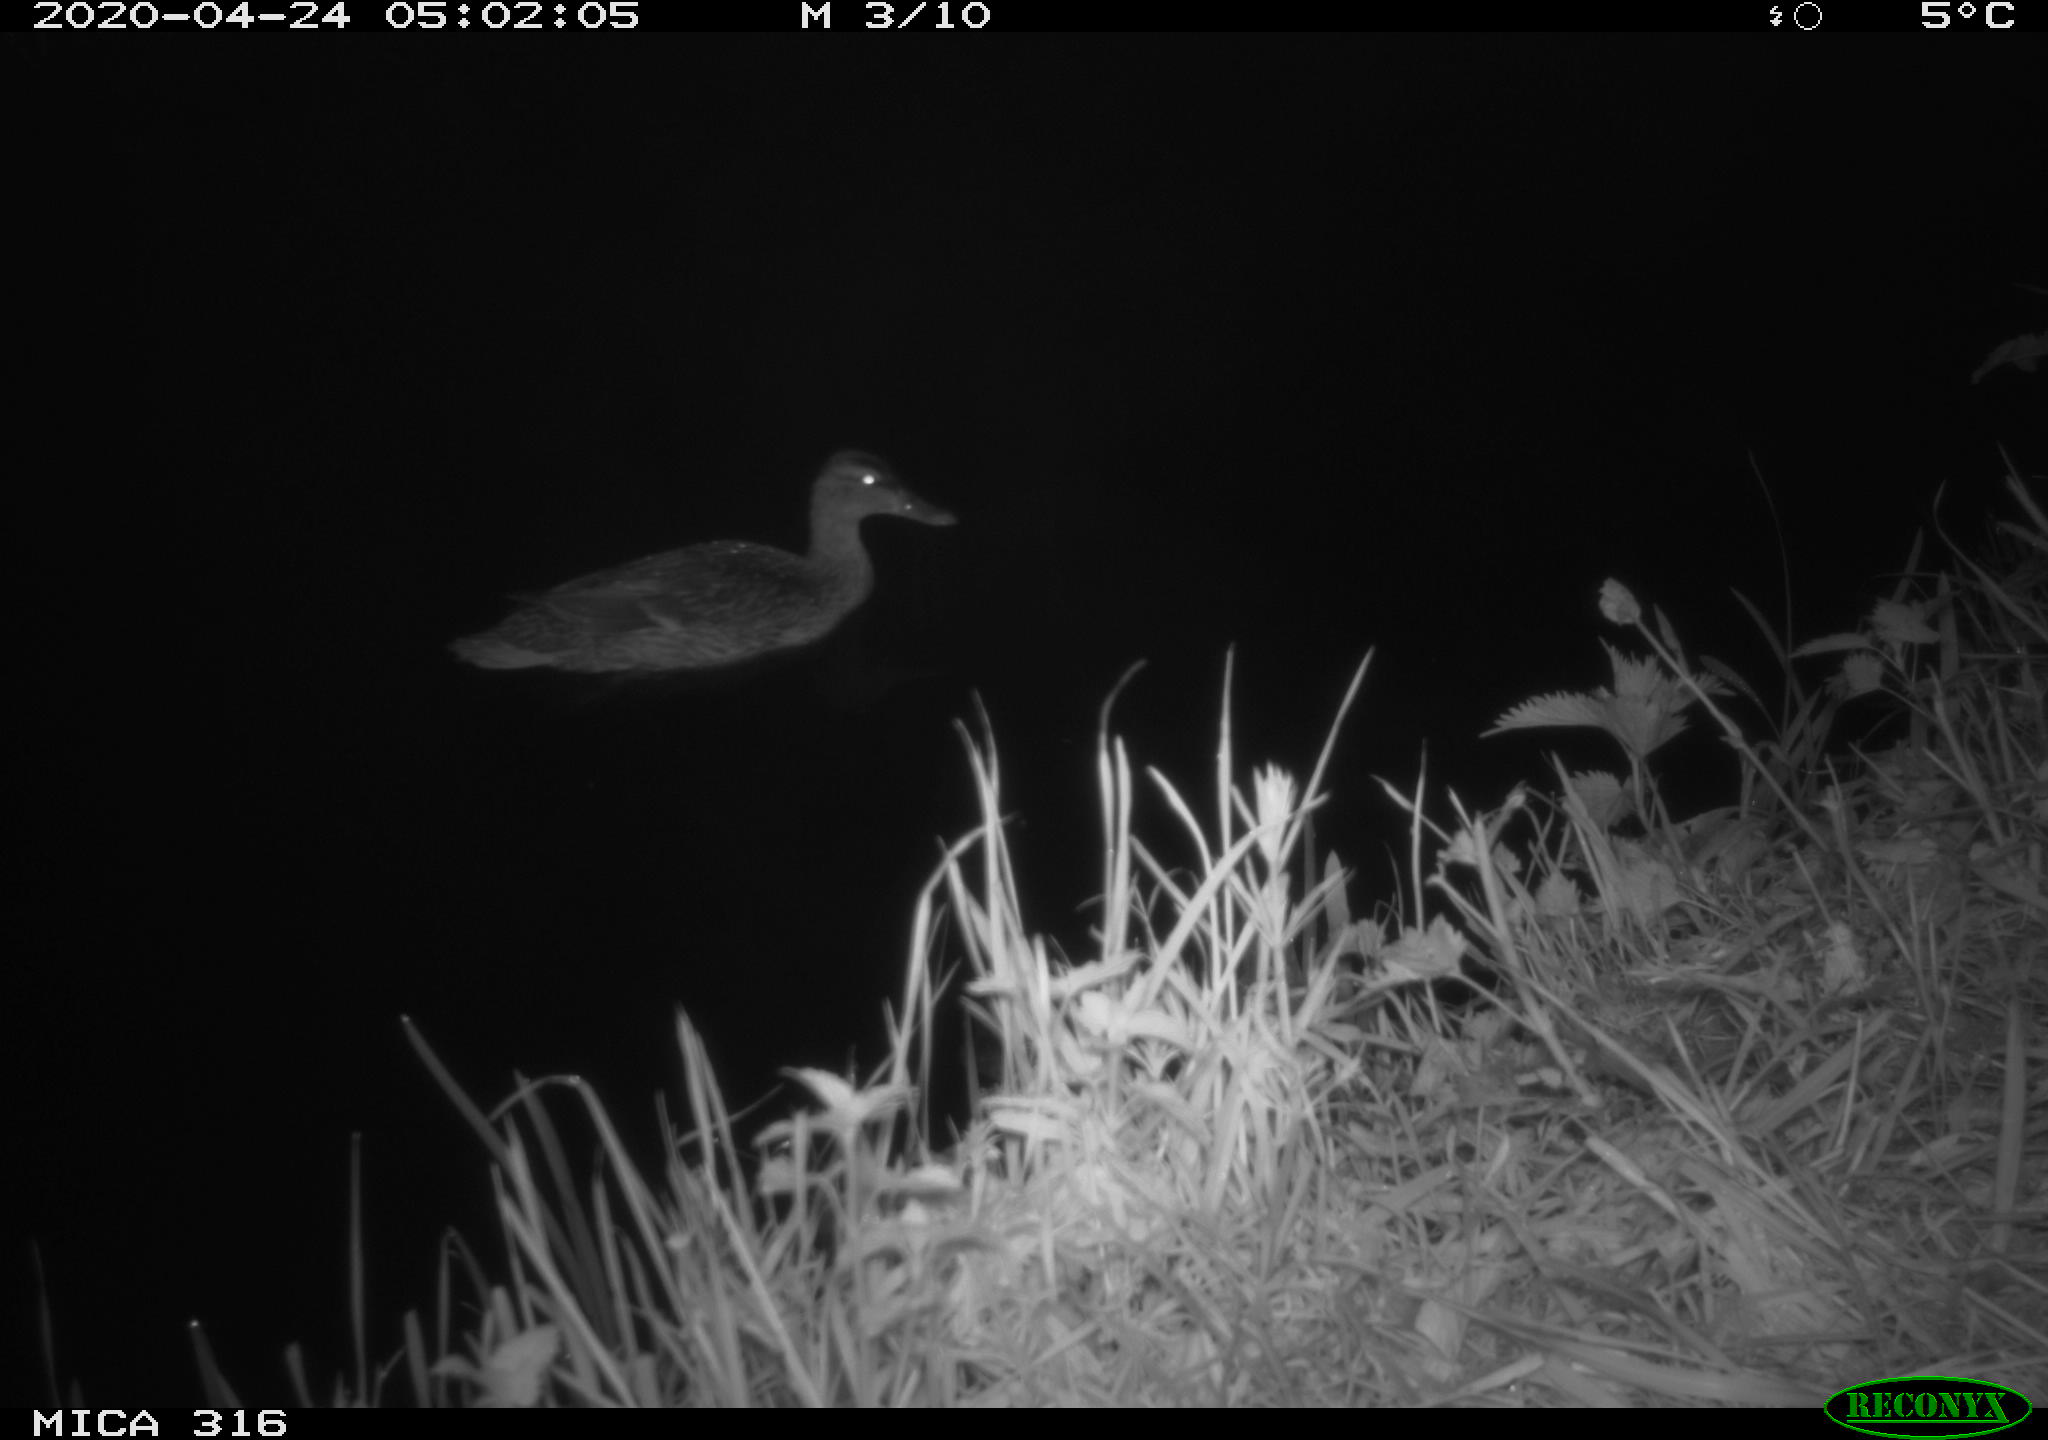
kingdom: Animalia
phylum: Chordata
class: Aves
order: Anseriformes
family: Anatidae
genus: Anas
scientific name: Anas platyrhynchos
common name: Mallard
